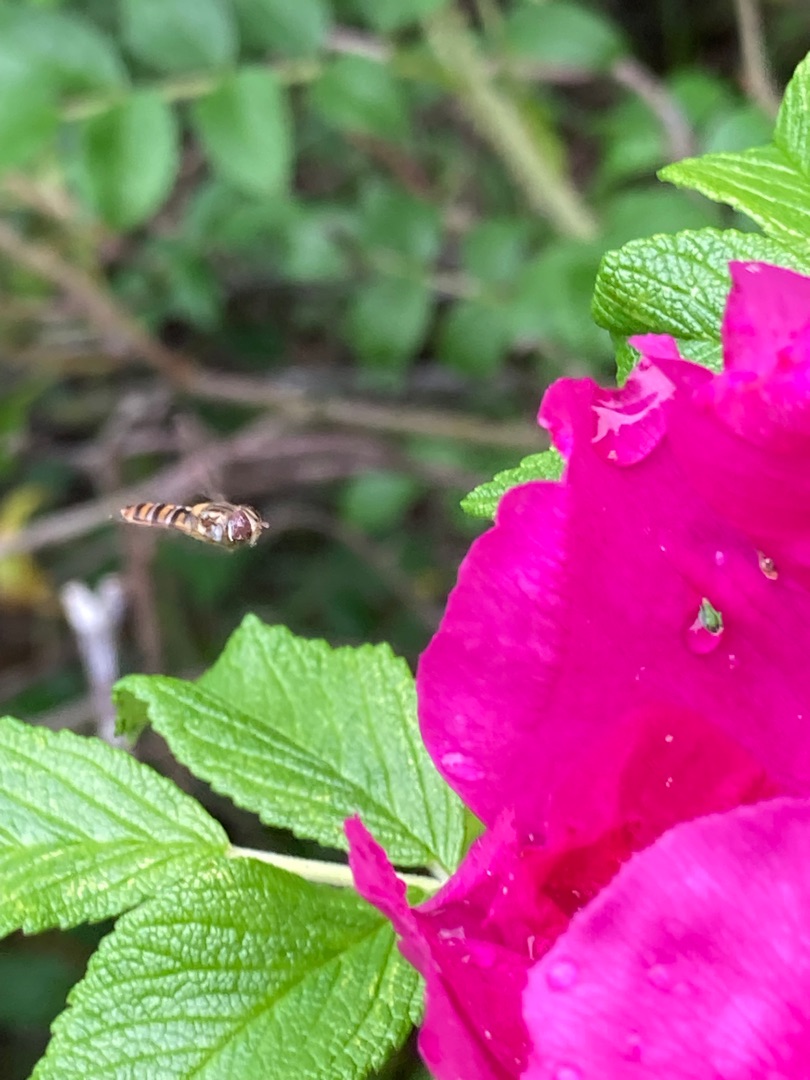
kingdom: Animalia
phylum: Arthropoda
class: Insecta
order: Diptera
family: Syrphidae
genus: Episyrphus
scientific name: Episyrphus balteatus
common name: Dobbeltbåndet svirreflue
